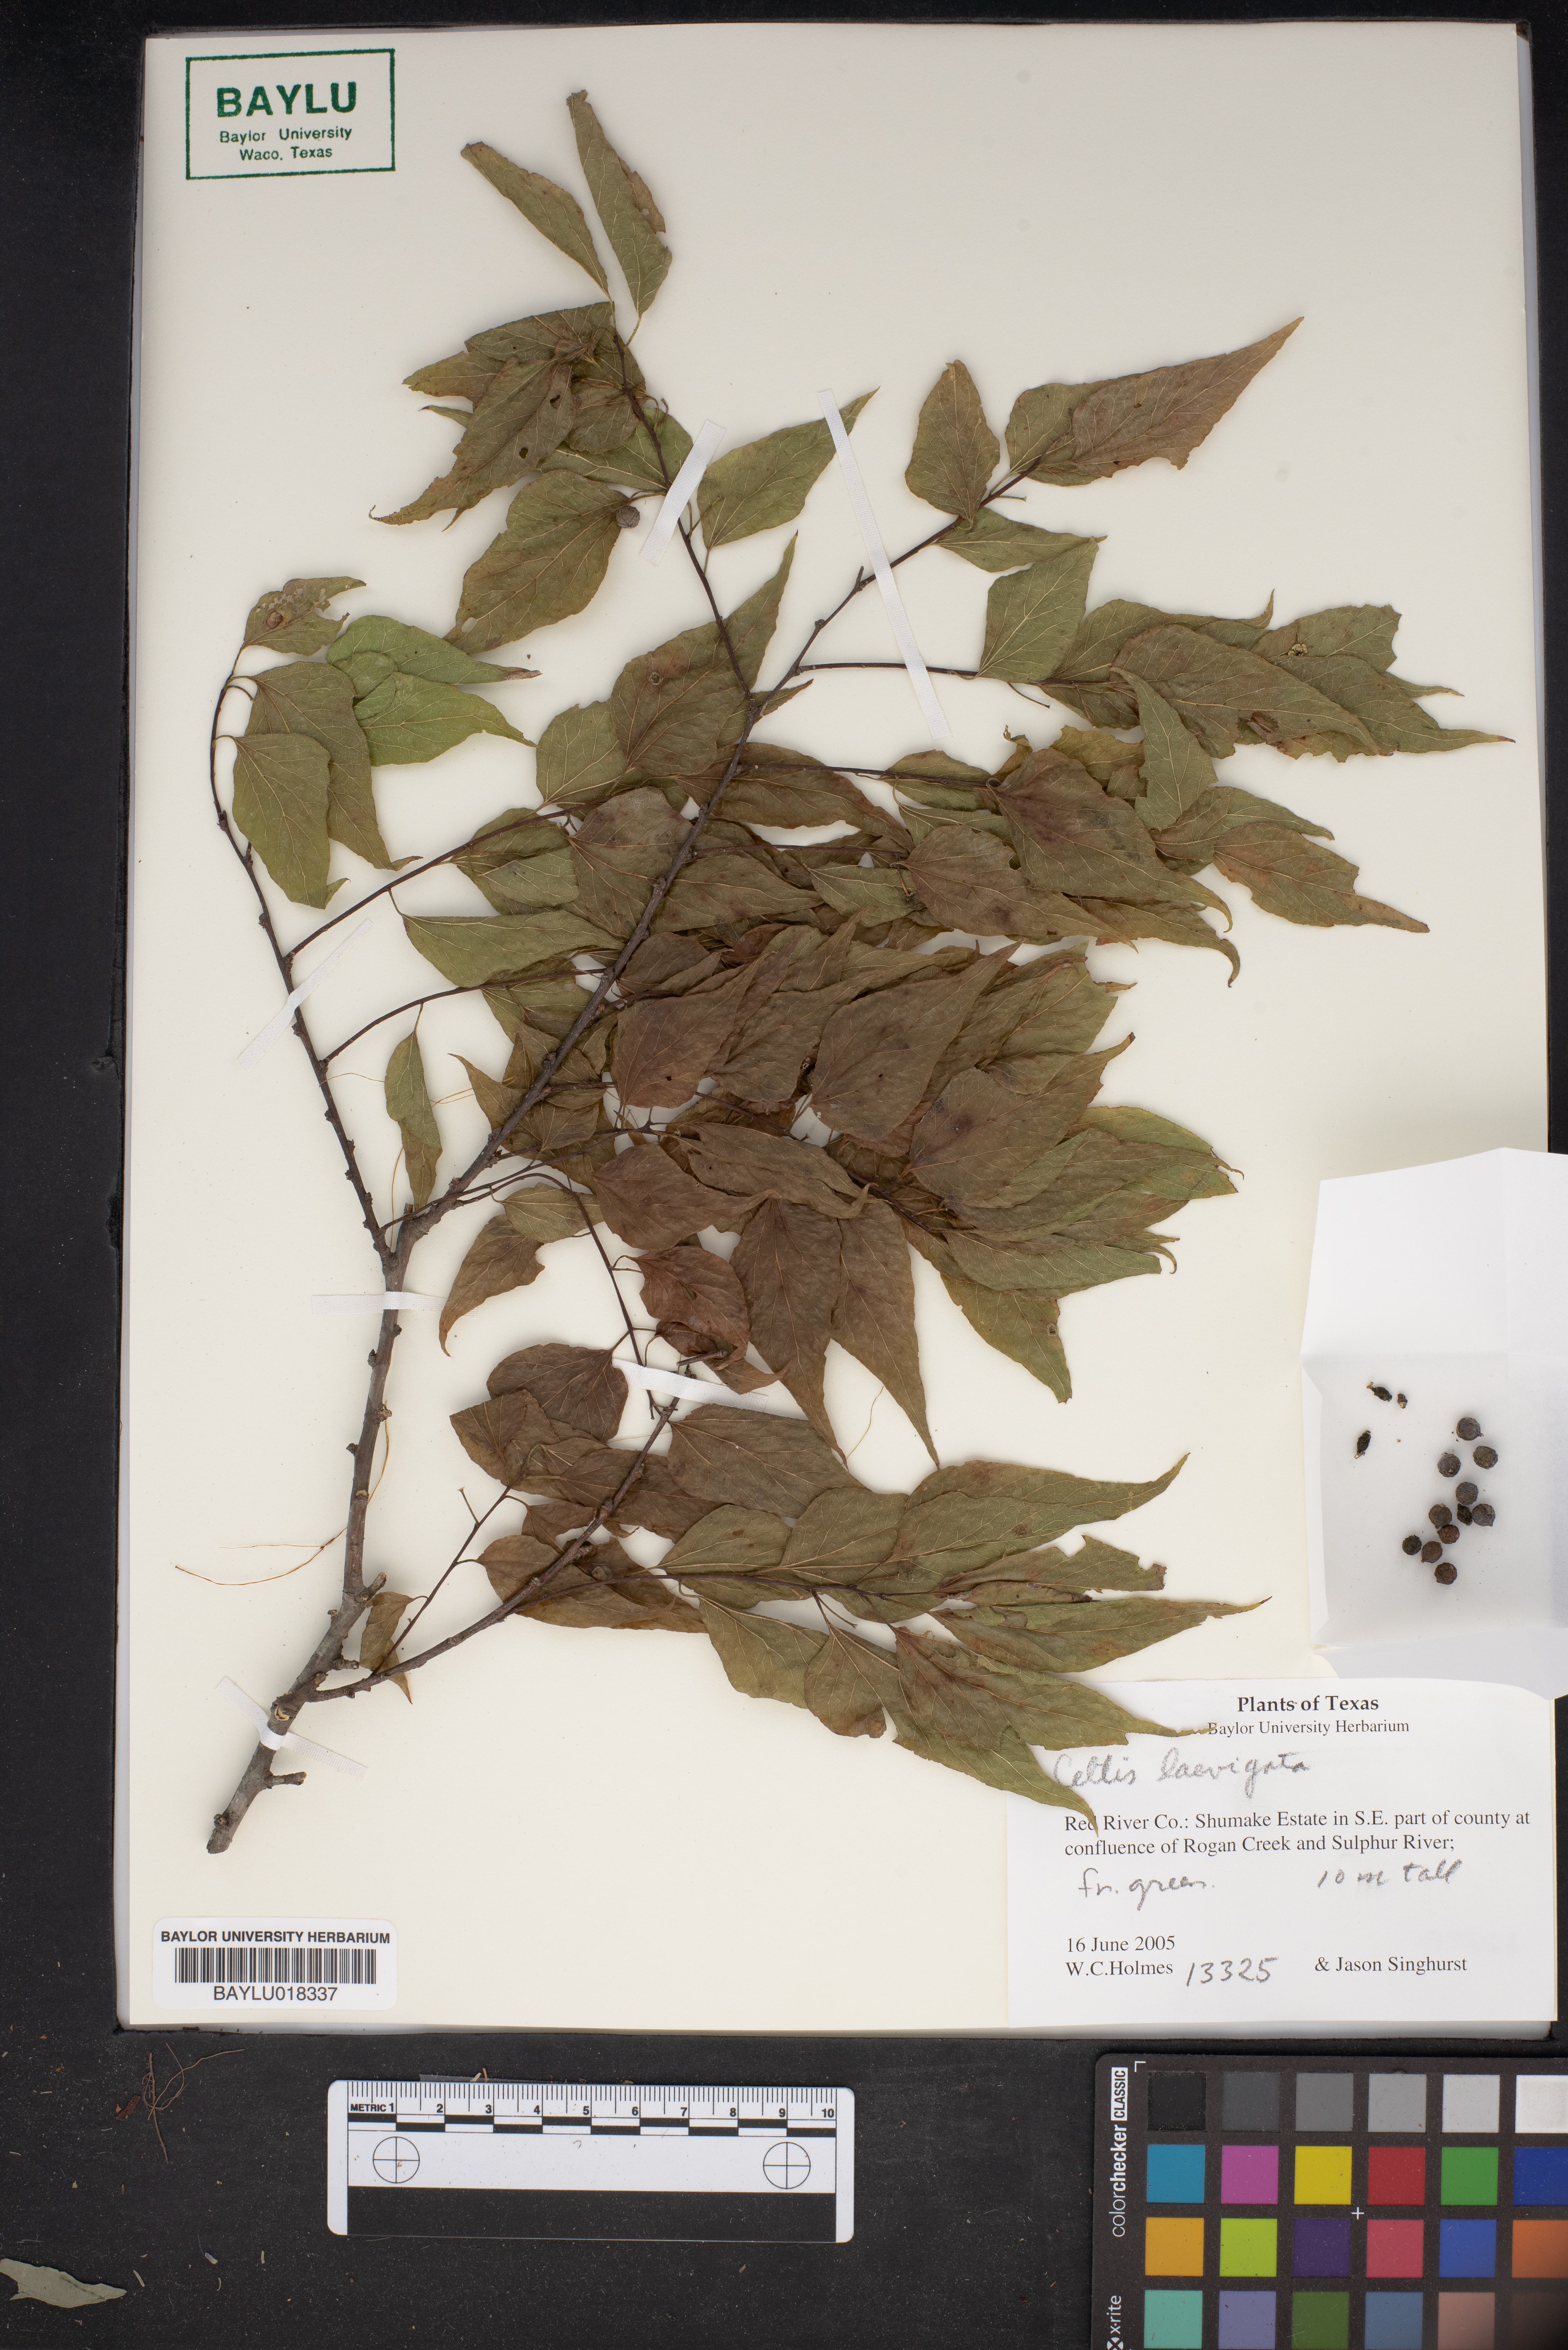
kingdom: Plantae
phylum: Tracheophyta
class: Magnoliopsida
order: Rosales
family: Cannabaceae
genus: Celtis
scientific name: Celtis laevigata
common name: Sugarberry
